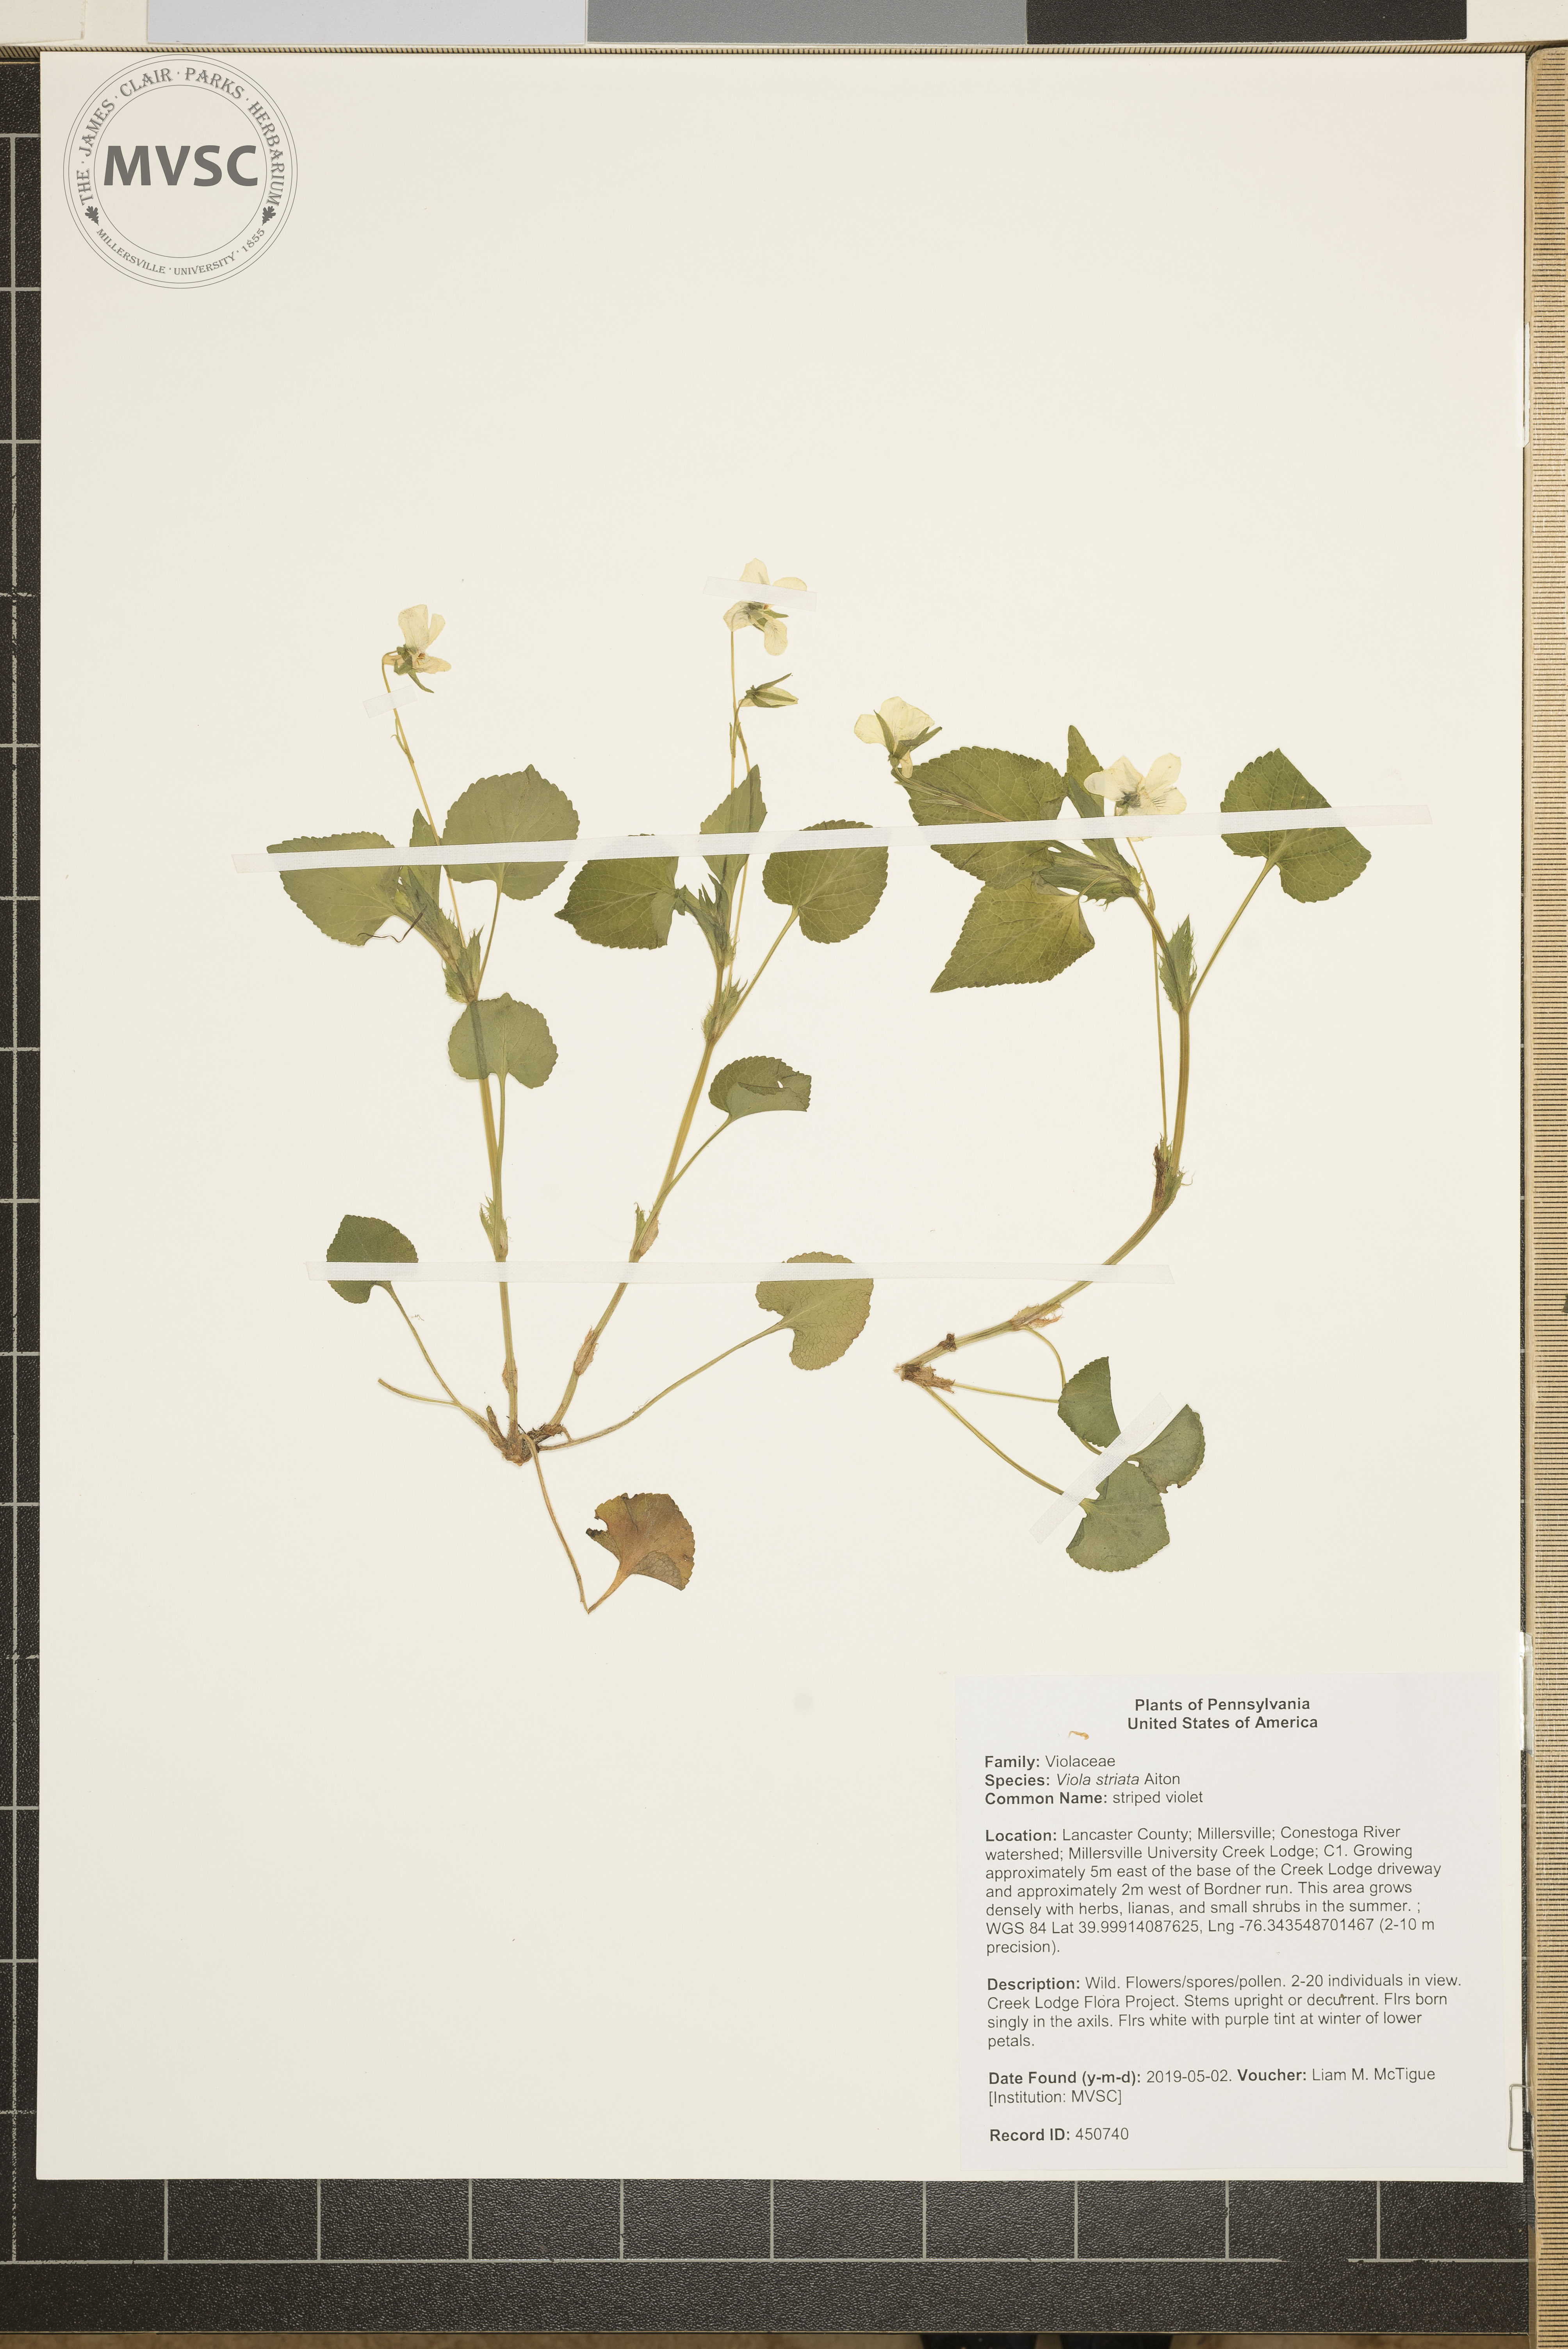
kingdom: Plantae
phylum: Tracheophyta
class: Magnoliopsida
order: Malpighiales
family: Violaceae
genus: Viola
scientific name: Viola striata
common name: striped violet
